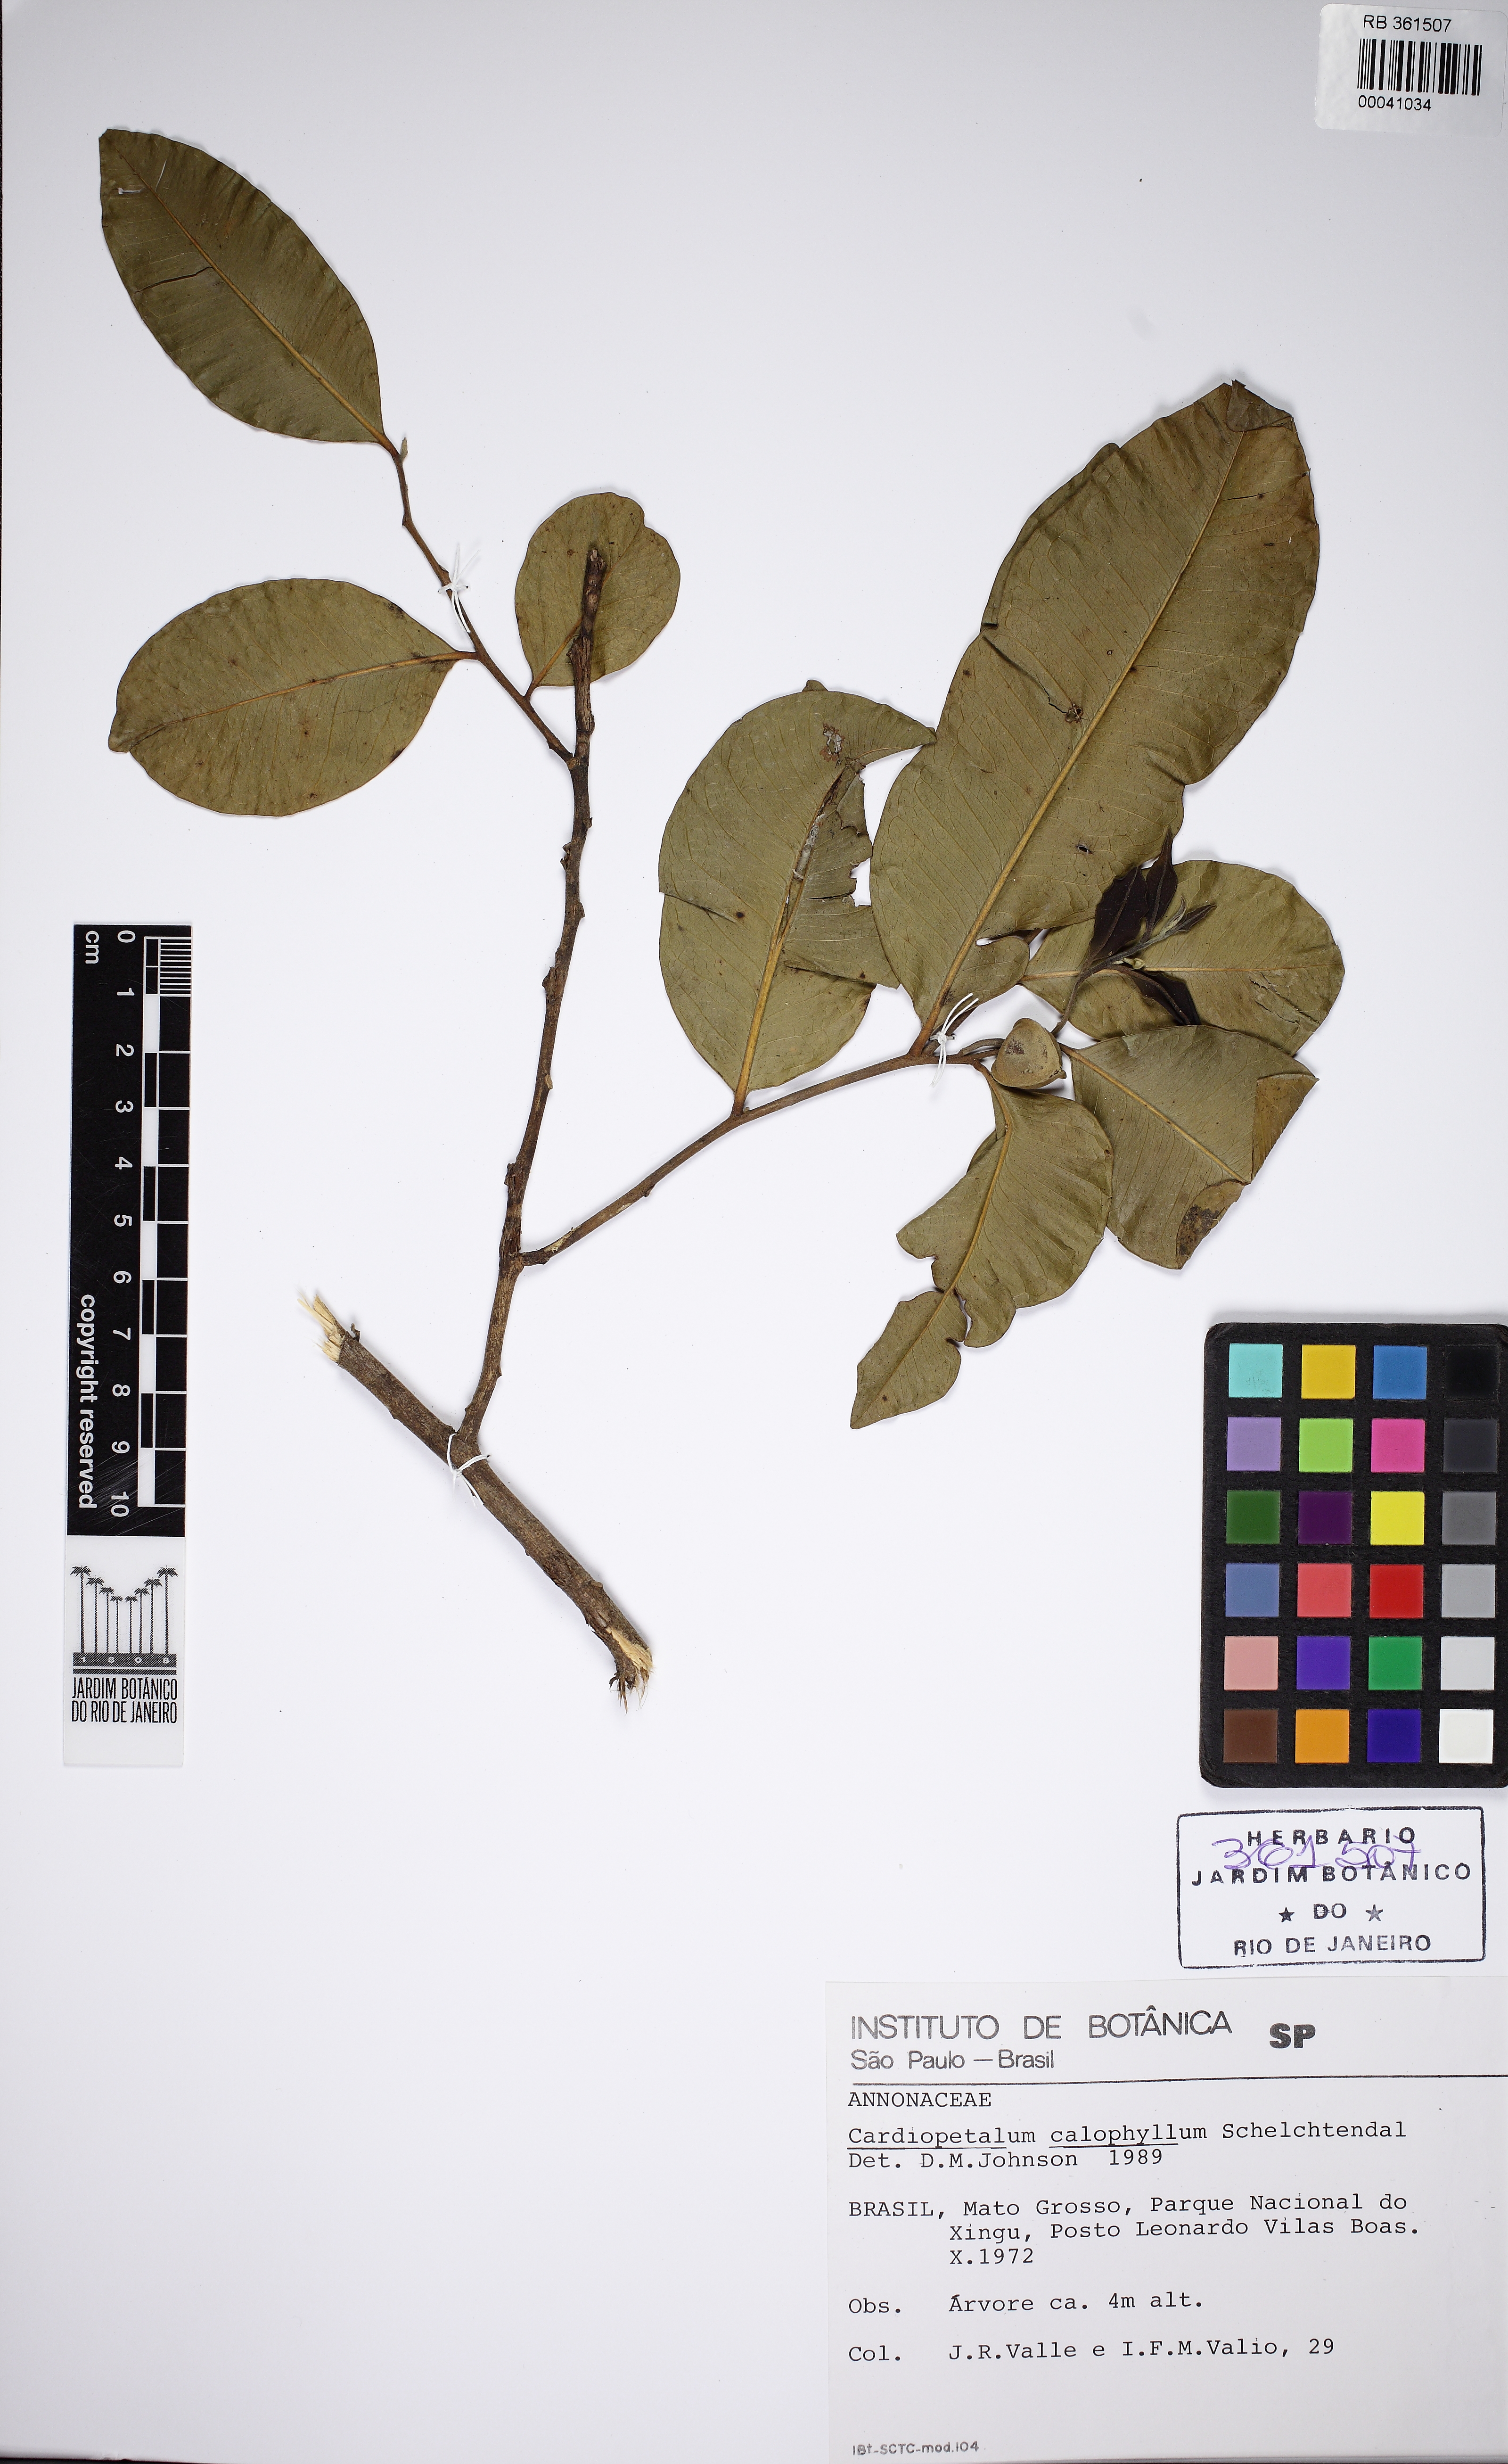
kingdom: Plantae
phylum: Tracheophyta
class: Magnoliopsida
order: Magnoliales
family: Annonaceae
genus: Cardiopetalum
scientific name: Cardiopetalum calophyllum
